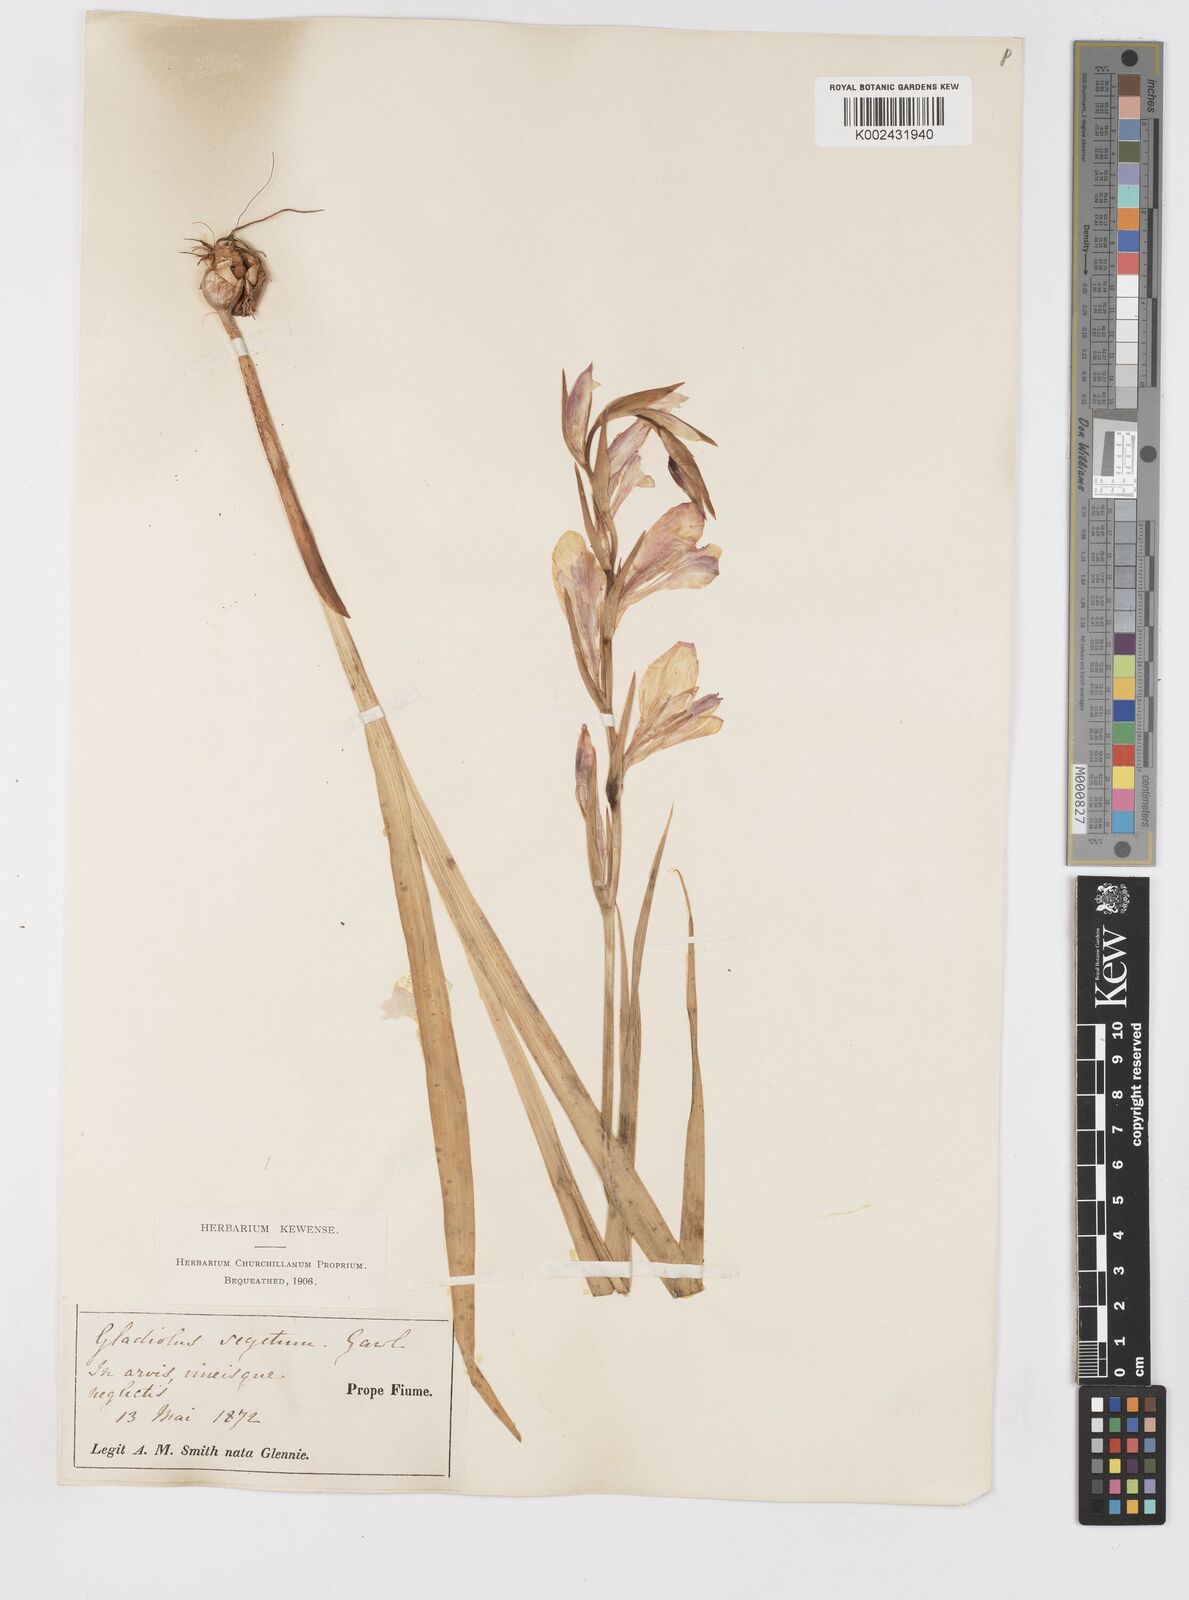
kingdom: Plantae
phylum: Tracheophyta
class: Liliopsida
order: Asparagales
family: Iridaceae
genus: Gladiolus
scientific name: Gladiolus italicus
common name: Field gladiolus
